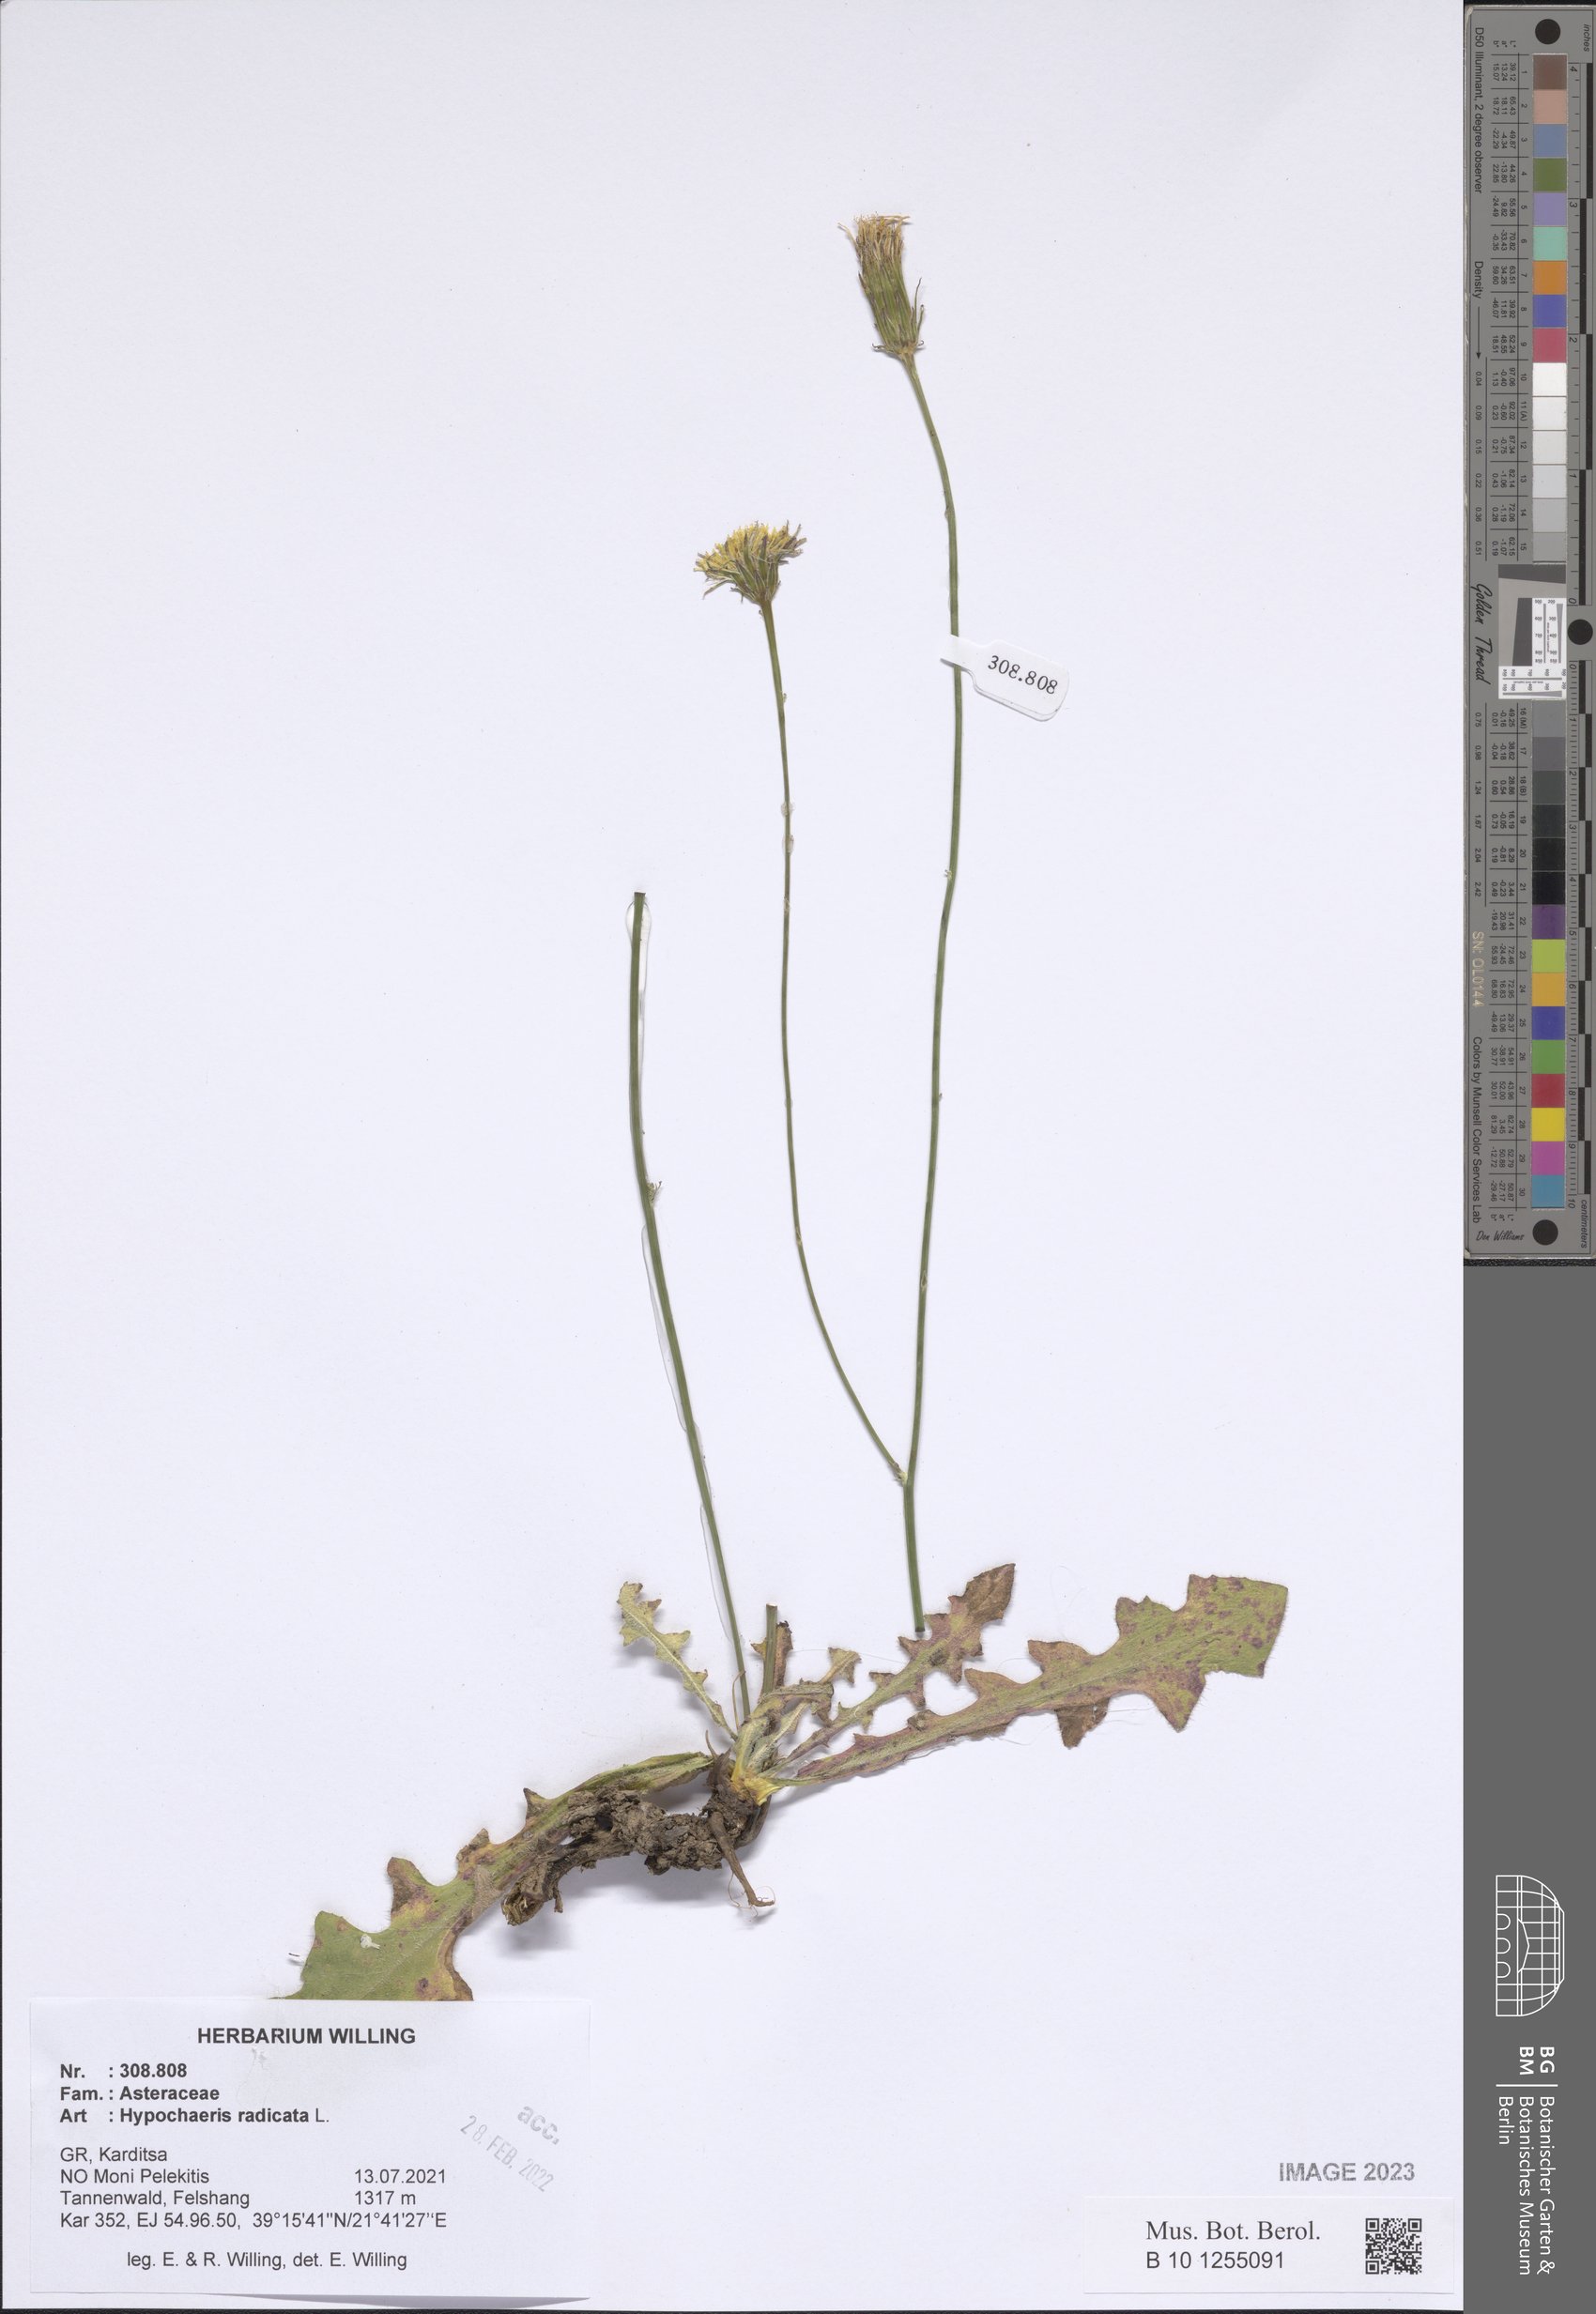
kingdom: Plantae
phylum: Tracheophyta
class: Magnoliopsida
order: Asterales
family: Asteraceae
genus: Hypochaeris
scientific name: Hypochaeris radicata
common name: Flatweed
